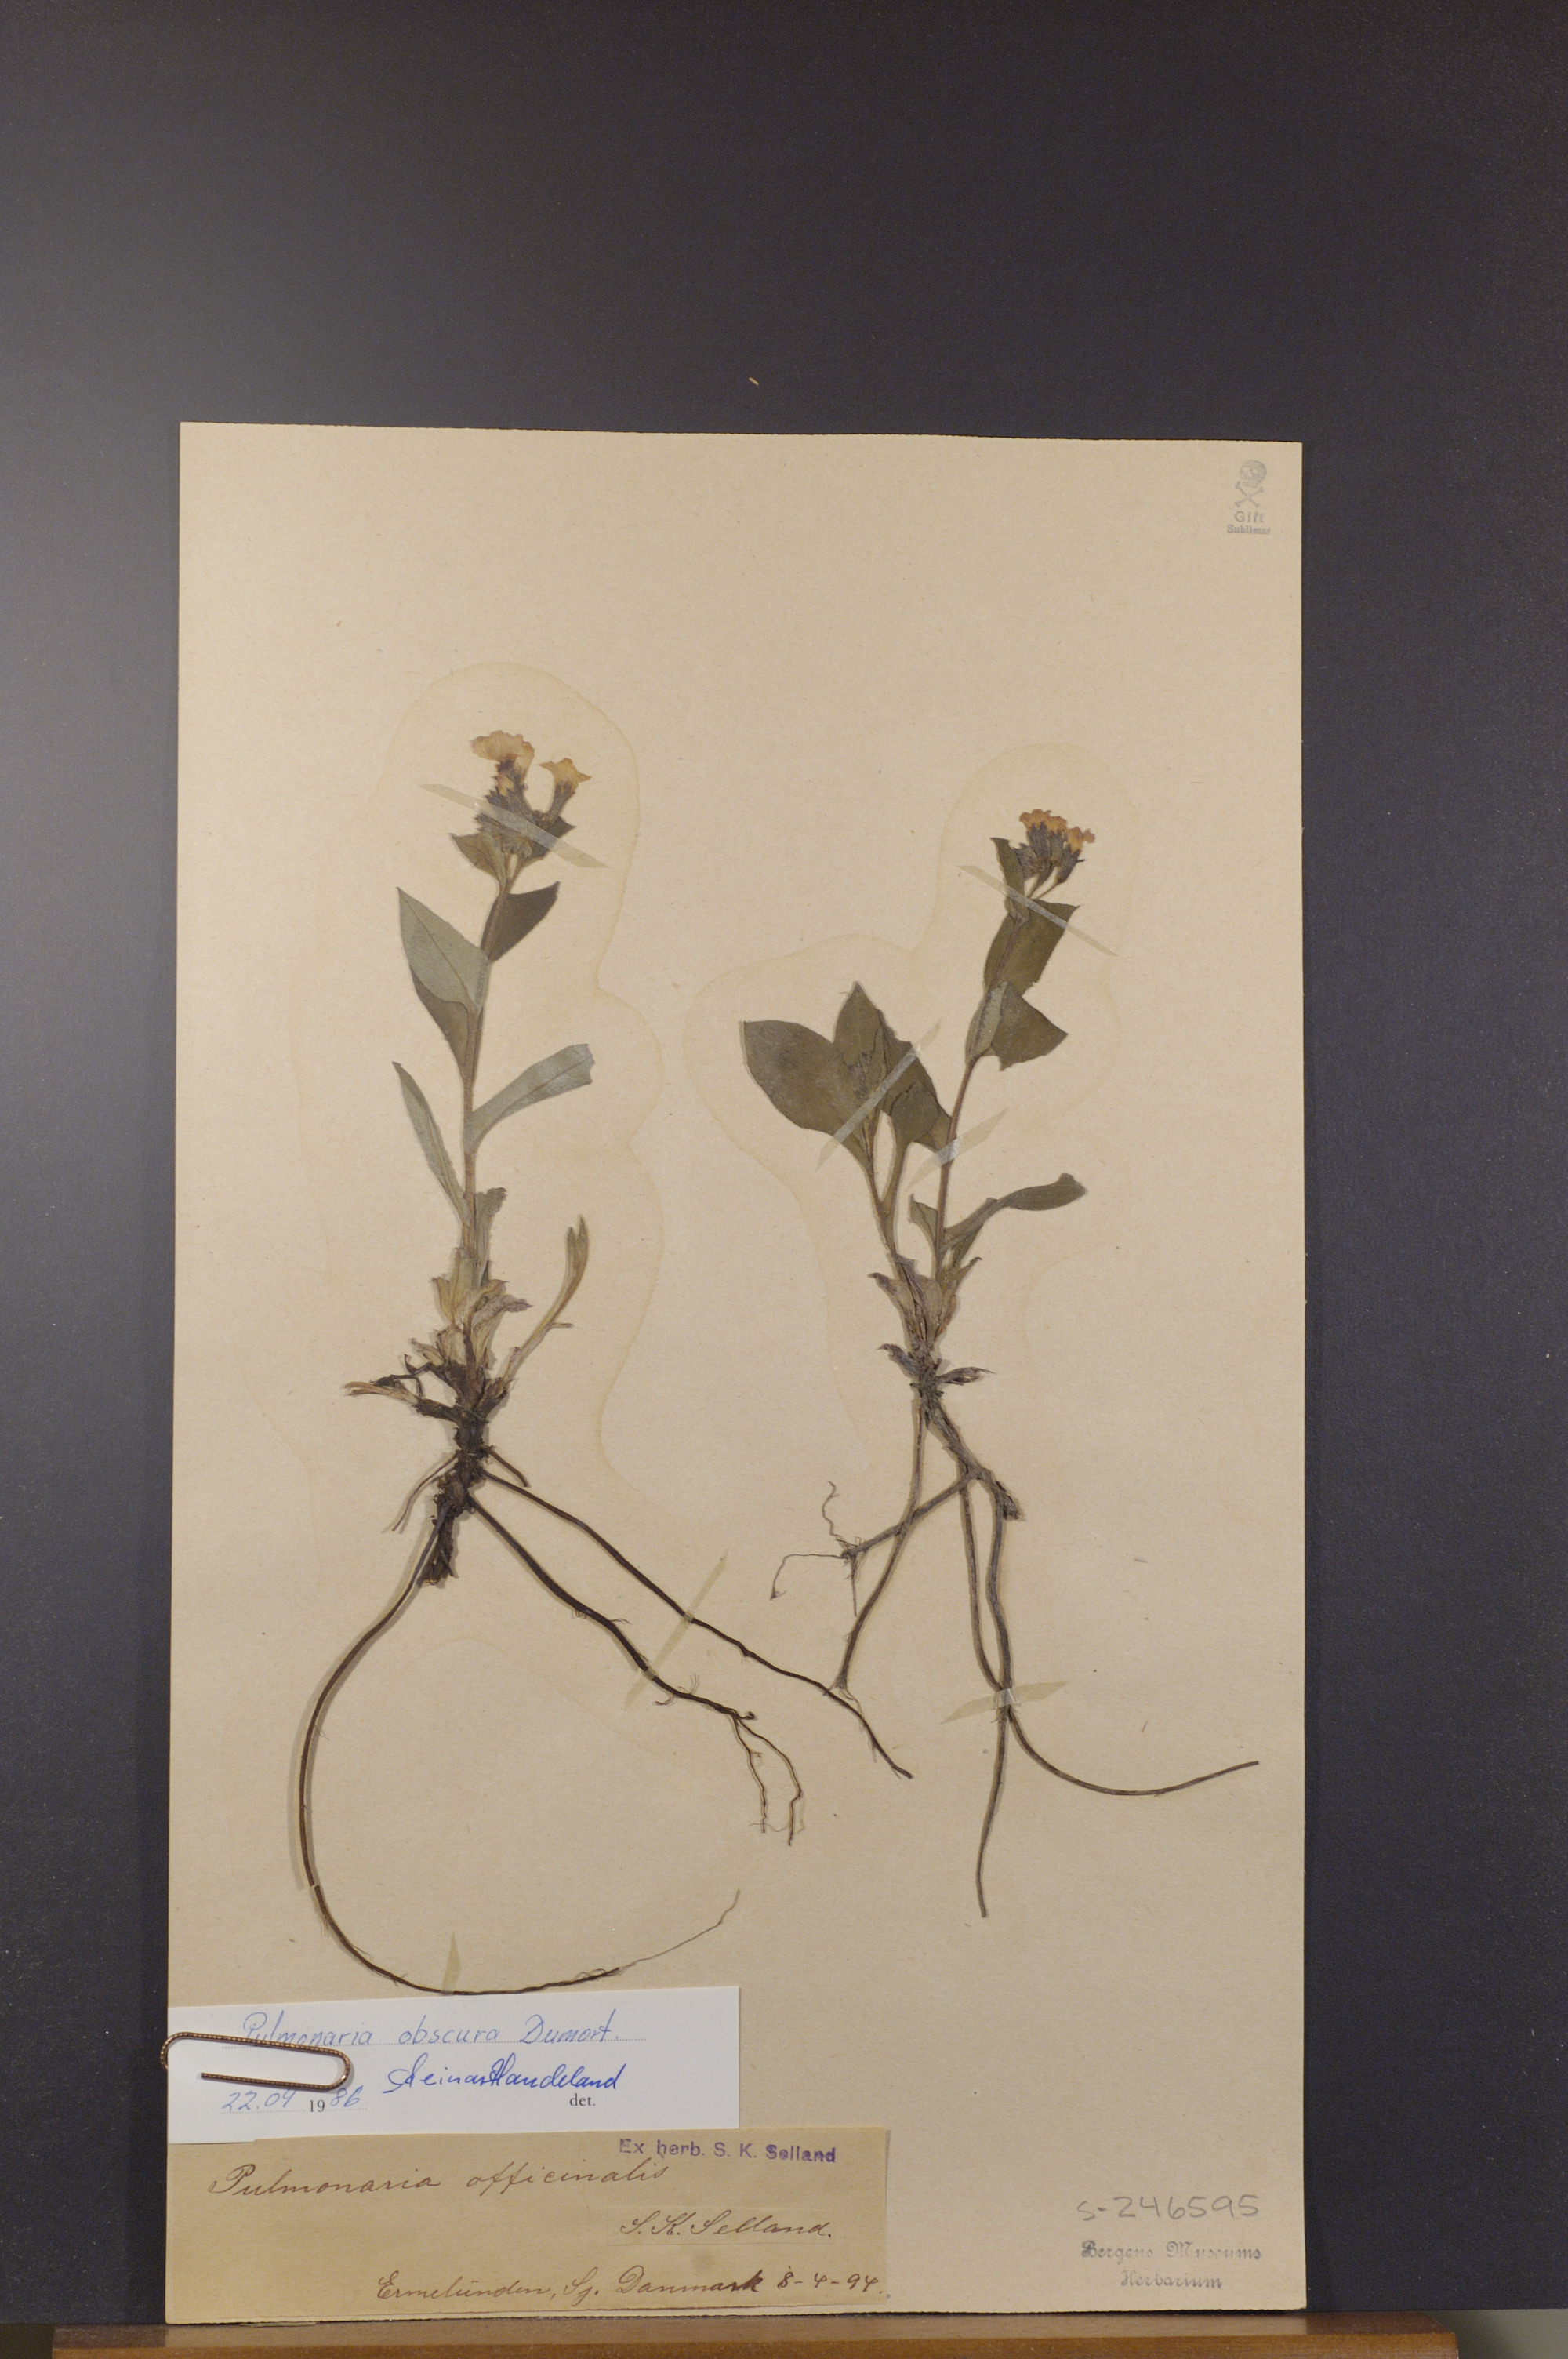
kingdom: Plantae
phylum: Tracheophyta
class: Magnoliopsida
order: Boraginales
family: Boraginaceae
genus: Pulmonaria
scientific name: Pulmonaria obscura
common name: Suffolk lungwort
